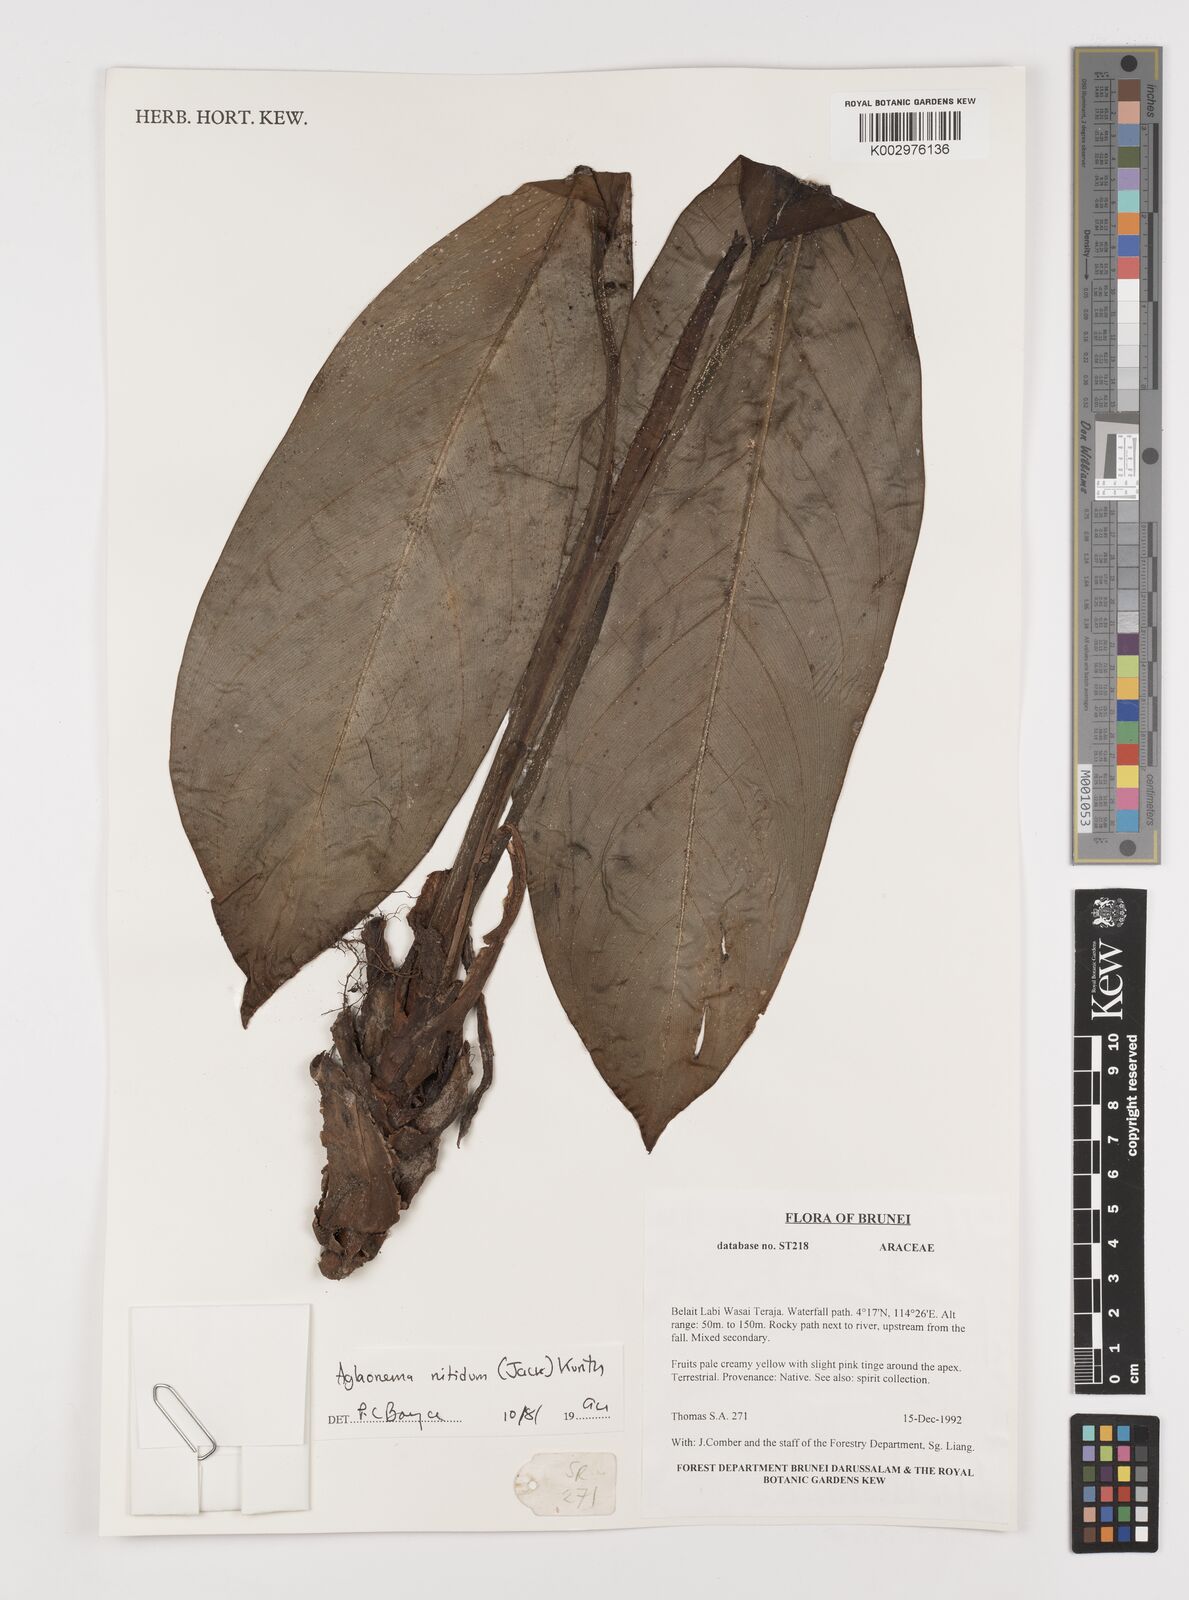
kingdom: Plantae
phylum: Tracheophyta
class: Liliopsida
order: Alismatales
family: Araceae
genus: Aglaonema
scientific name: Aglaonema nitidum
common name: Aglaonema aroid
